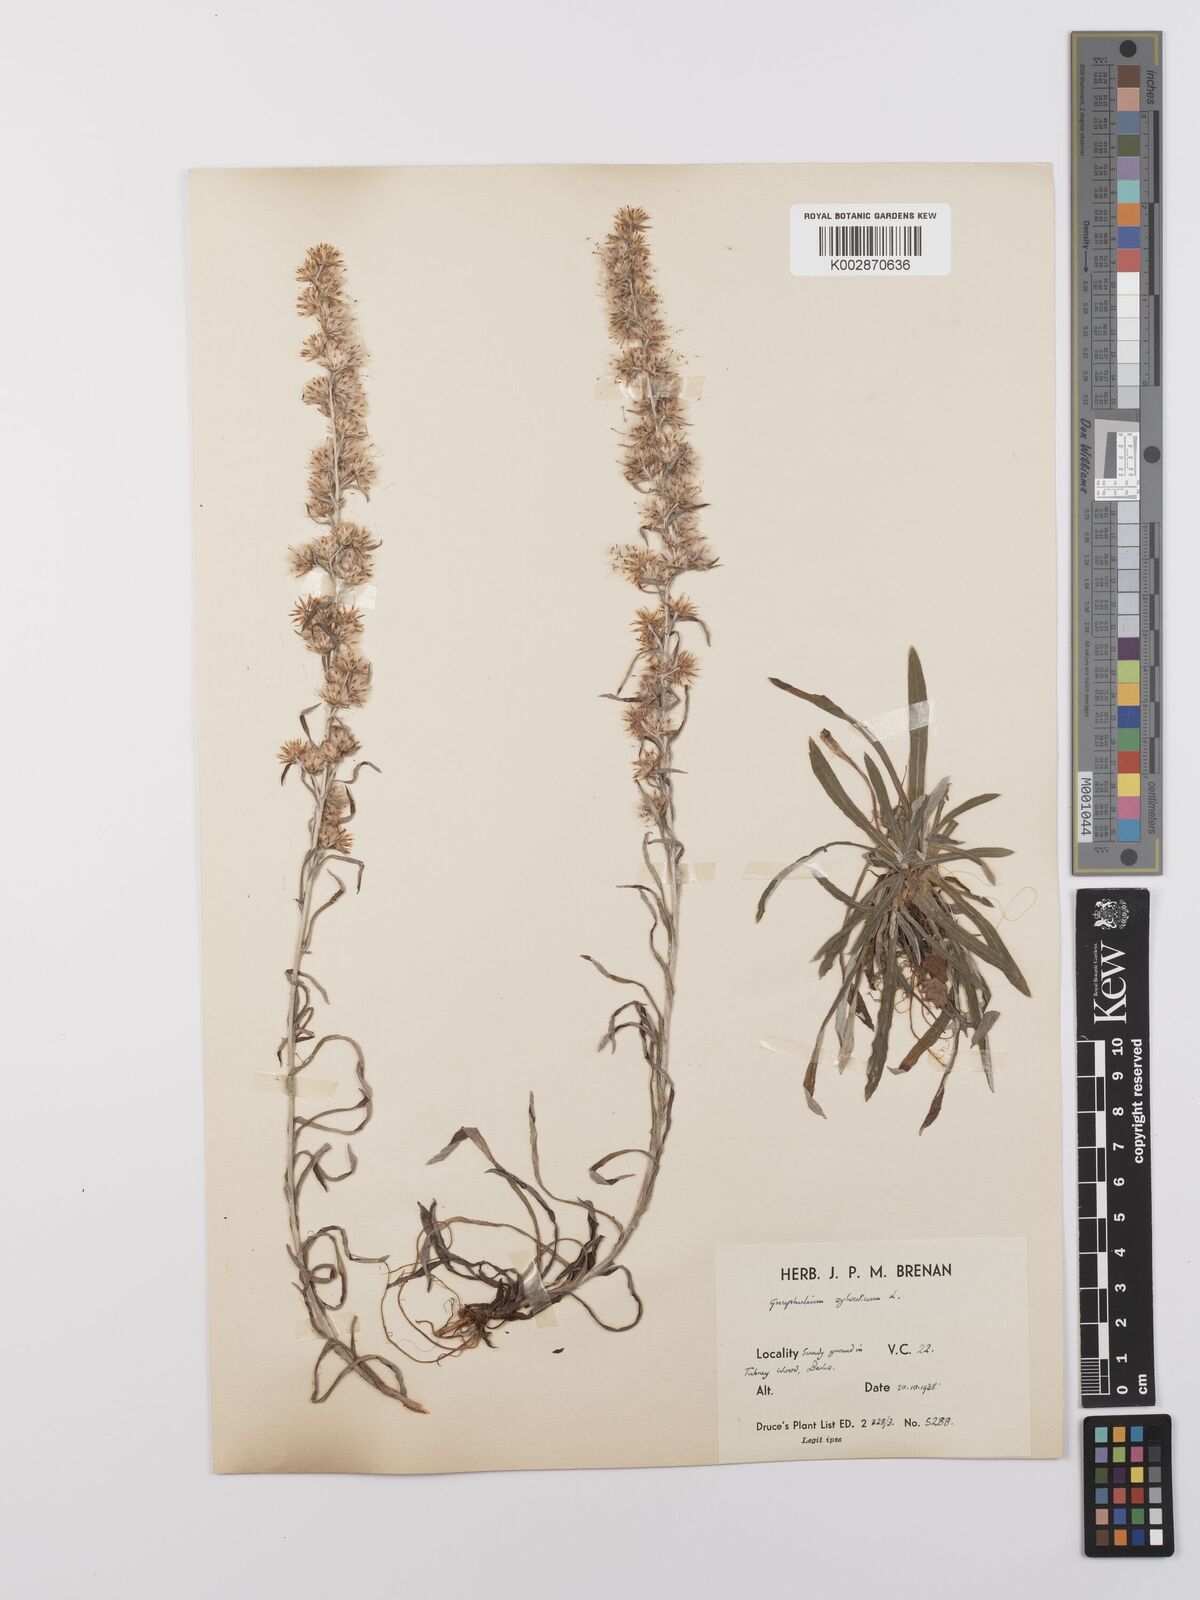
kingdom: Plantae
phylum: Tracheophyta
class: Magnoliopsida
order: Asterales
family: Asteraceae
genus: Omalotheca
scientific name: Omalotheca sylvatica
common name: Heath cudweed
